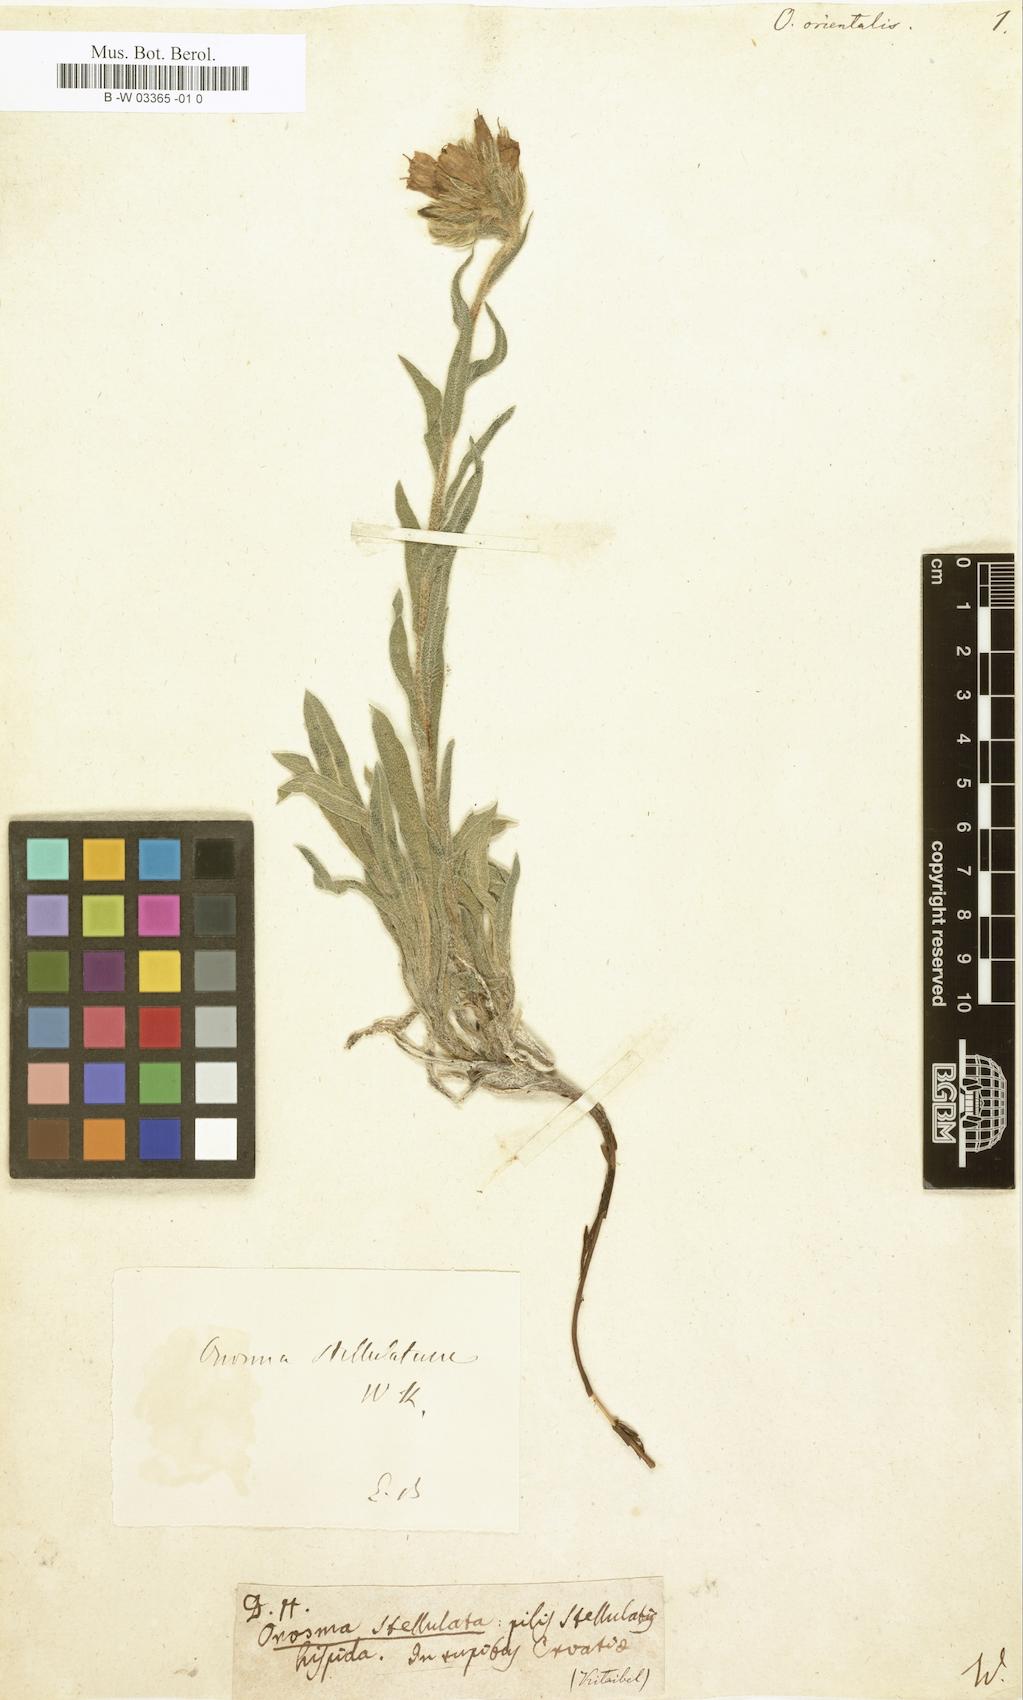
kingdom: Plantae
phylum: Tracheophyta
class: Magnoliopsida
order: Boraginales
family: Boraginaceae
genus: Podonosma
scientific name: Podonosma orientalis
